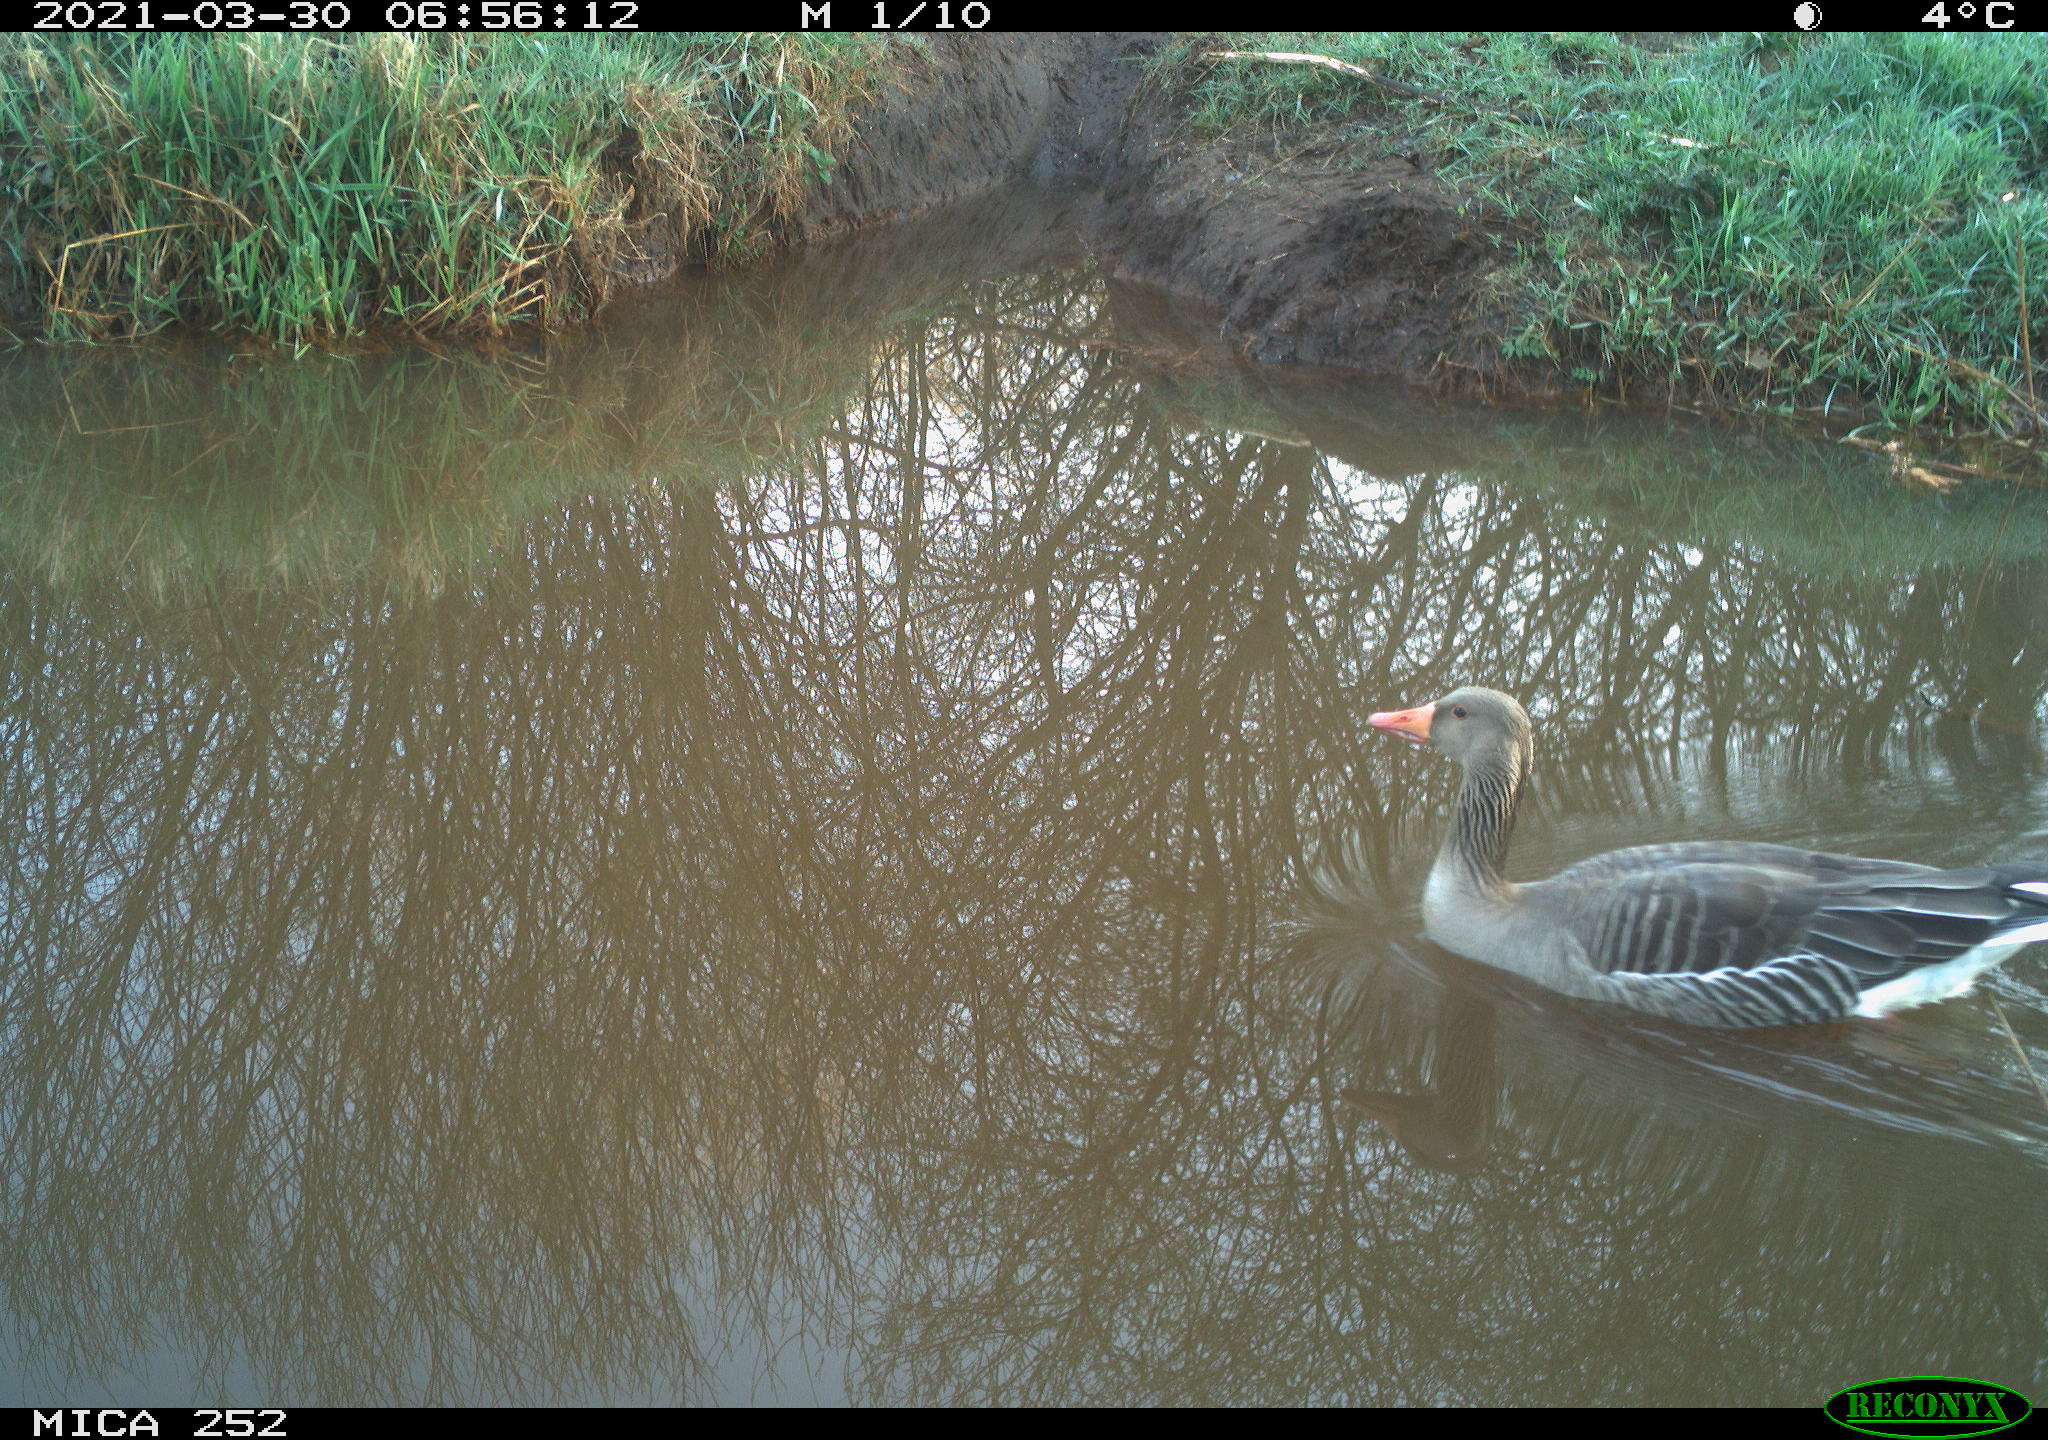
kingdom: Animalia
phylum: Chordata
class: Aves
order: Anseriformes
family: Anatidae
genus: Anser
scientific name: Anser anser
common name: Greylag goose
